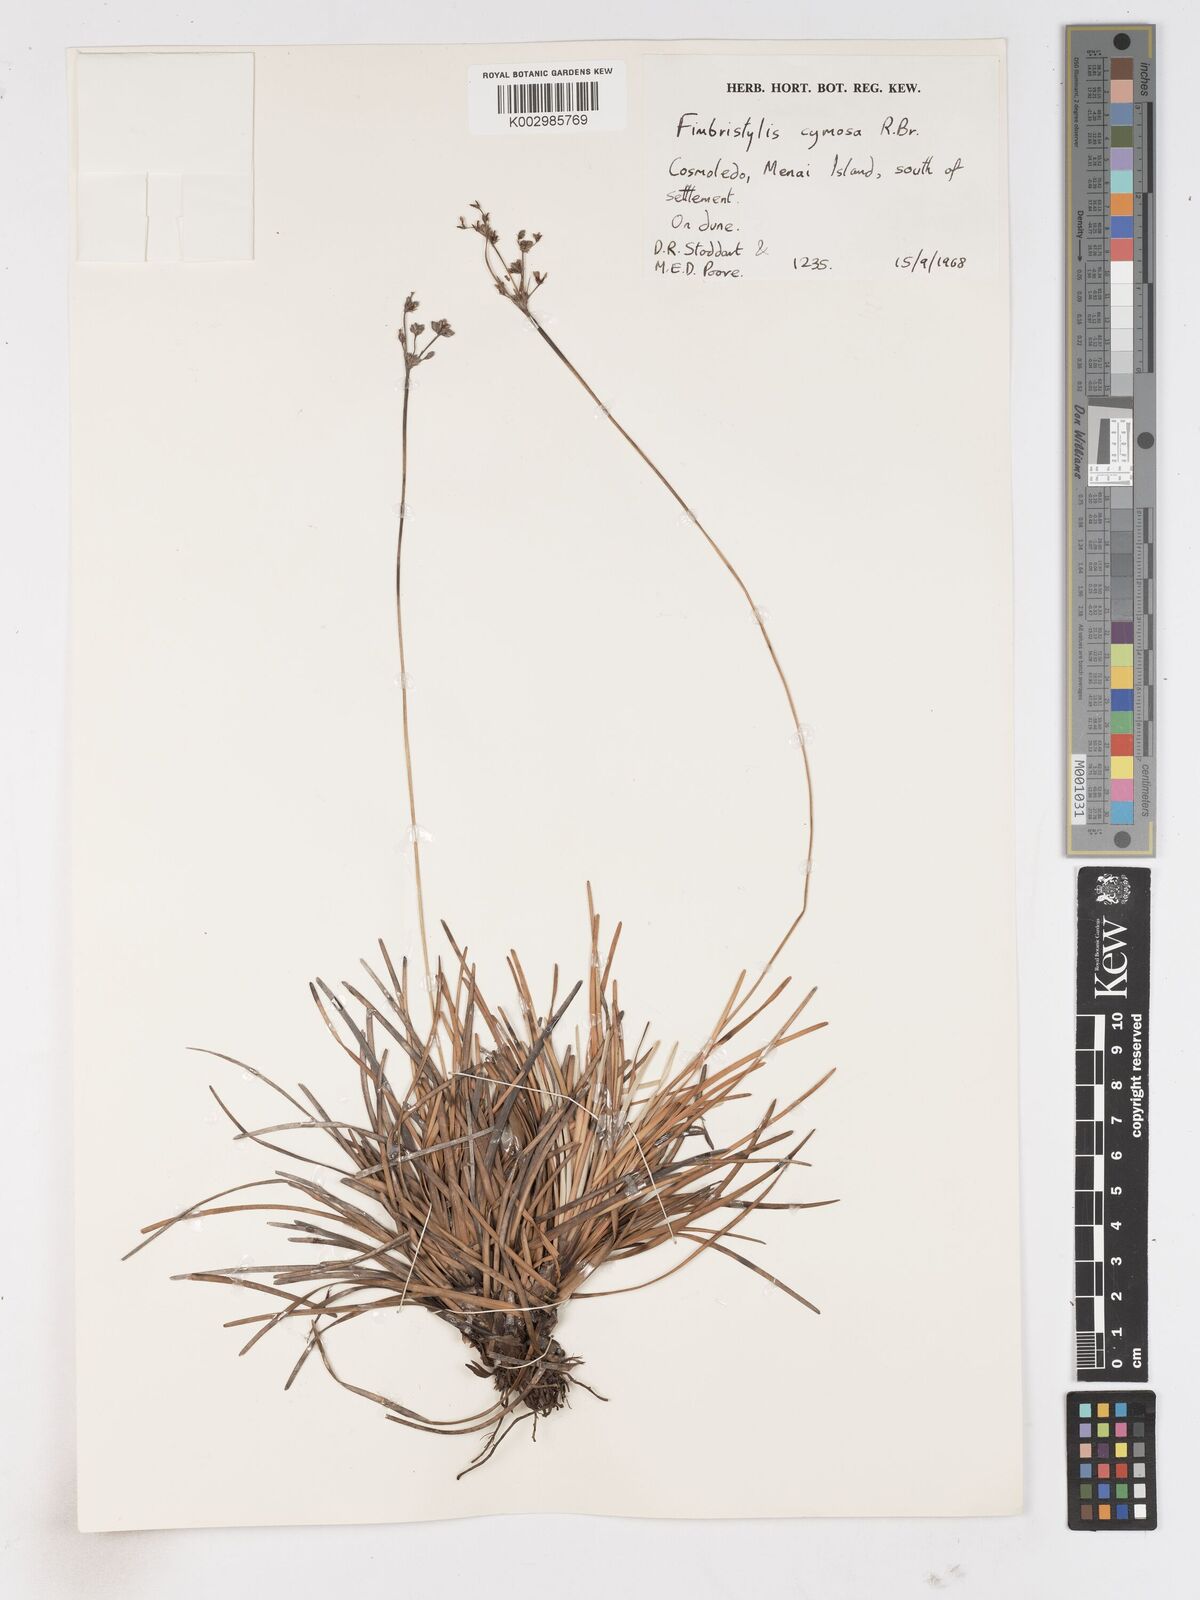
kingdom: Plantae
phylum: Tracheophyta
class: Liliopsida
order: Poales
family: Cyperaceae
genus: Fimbristylis
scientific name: Fimbristylis cymosa
